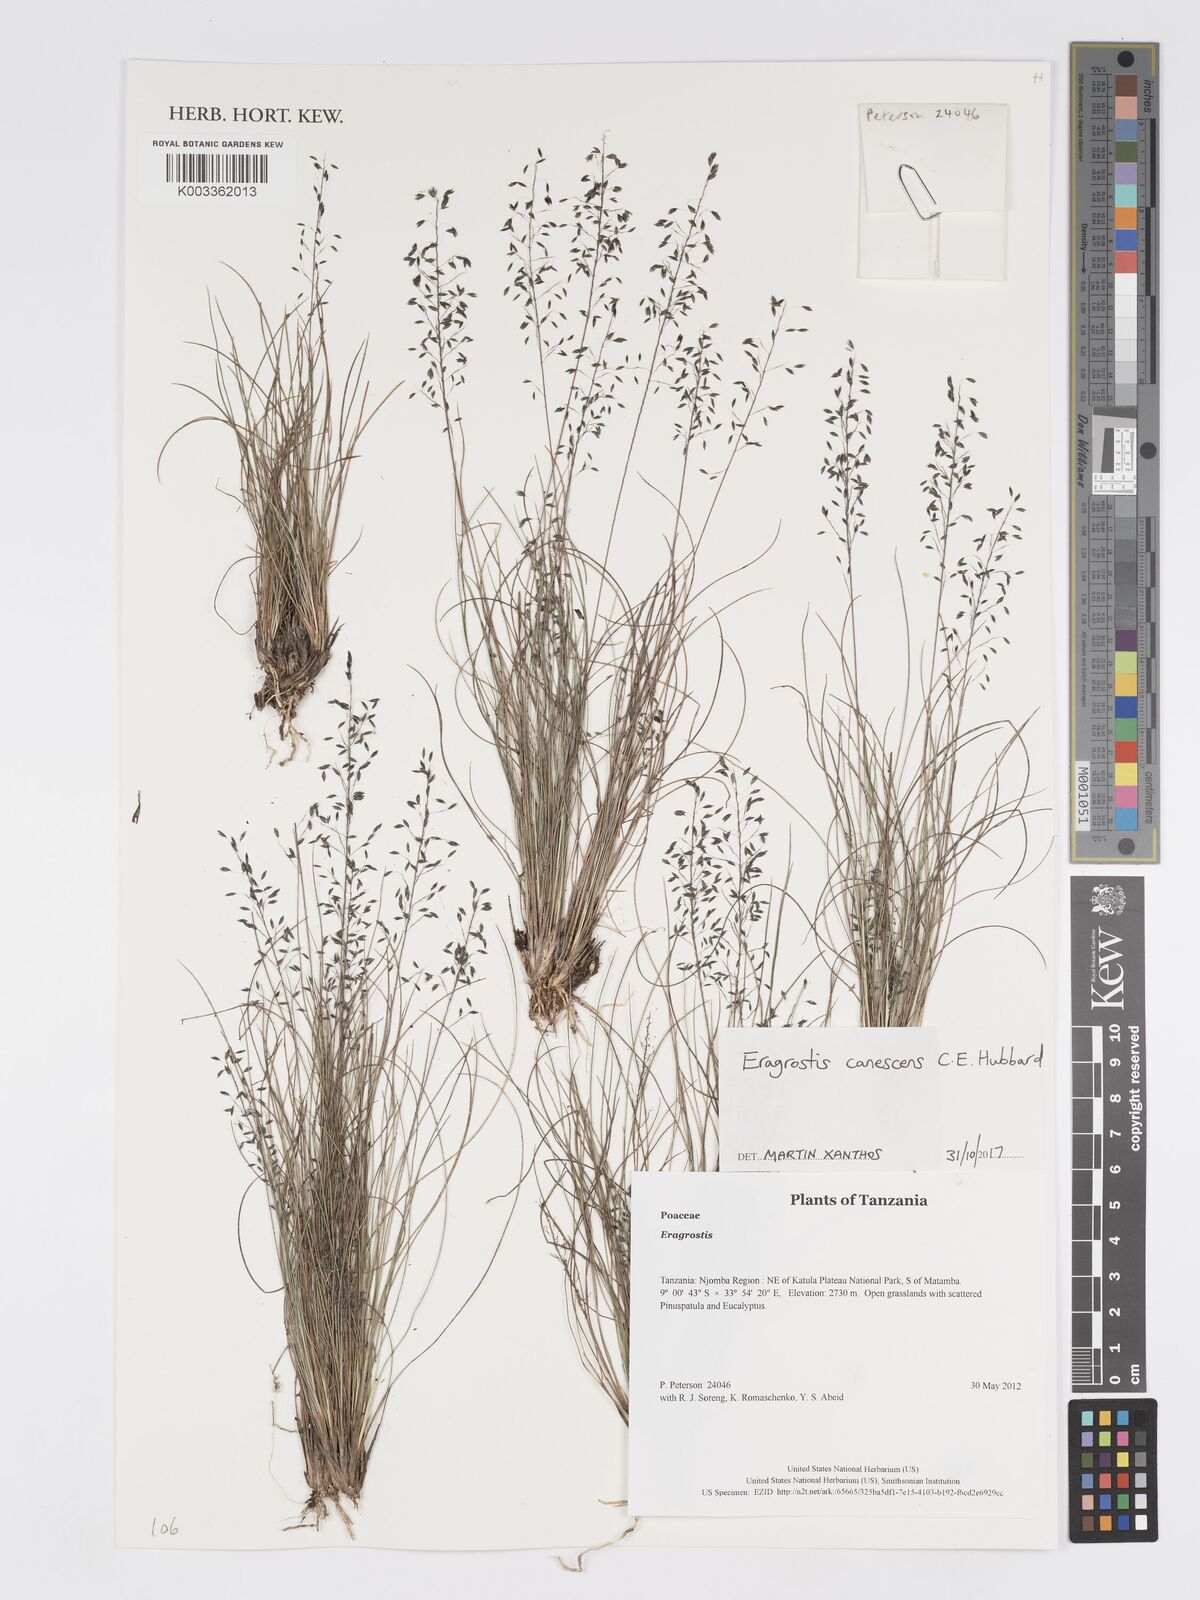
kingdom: Plantae
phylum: Tracheophyta
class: Liliopsida
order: Poales
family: Poaceae
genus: Eragrostis
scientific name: Eragrostis canescens
